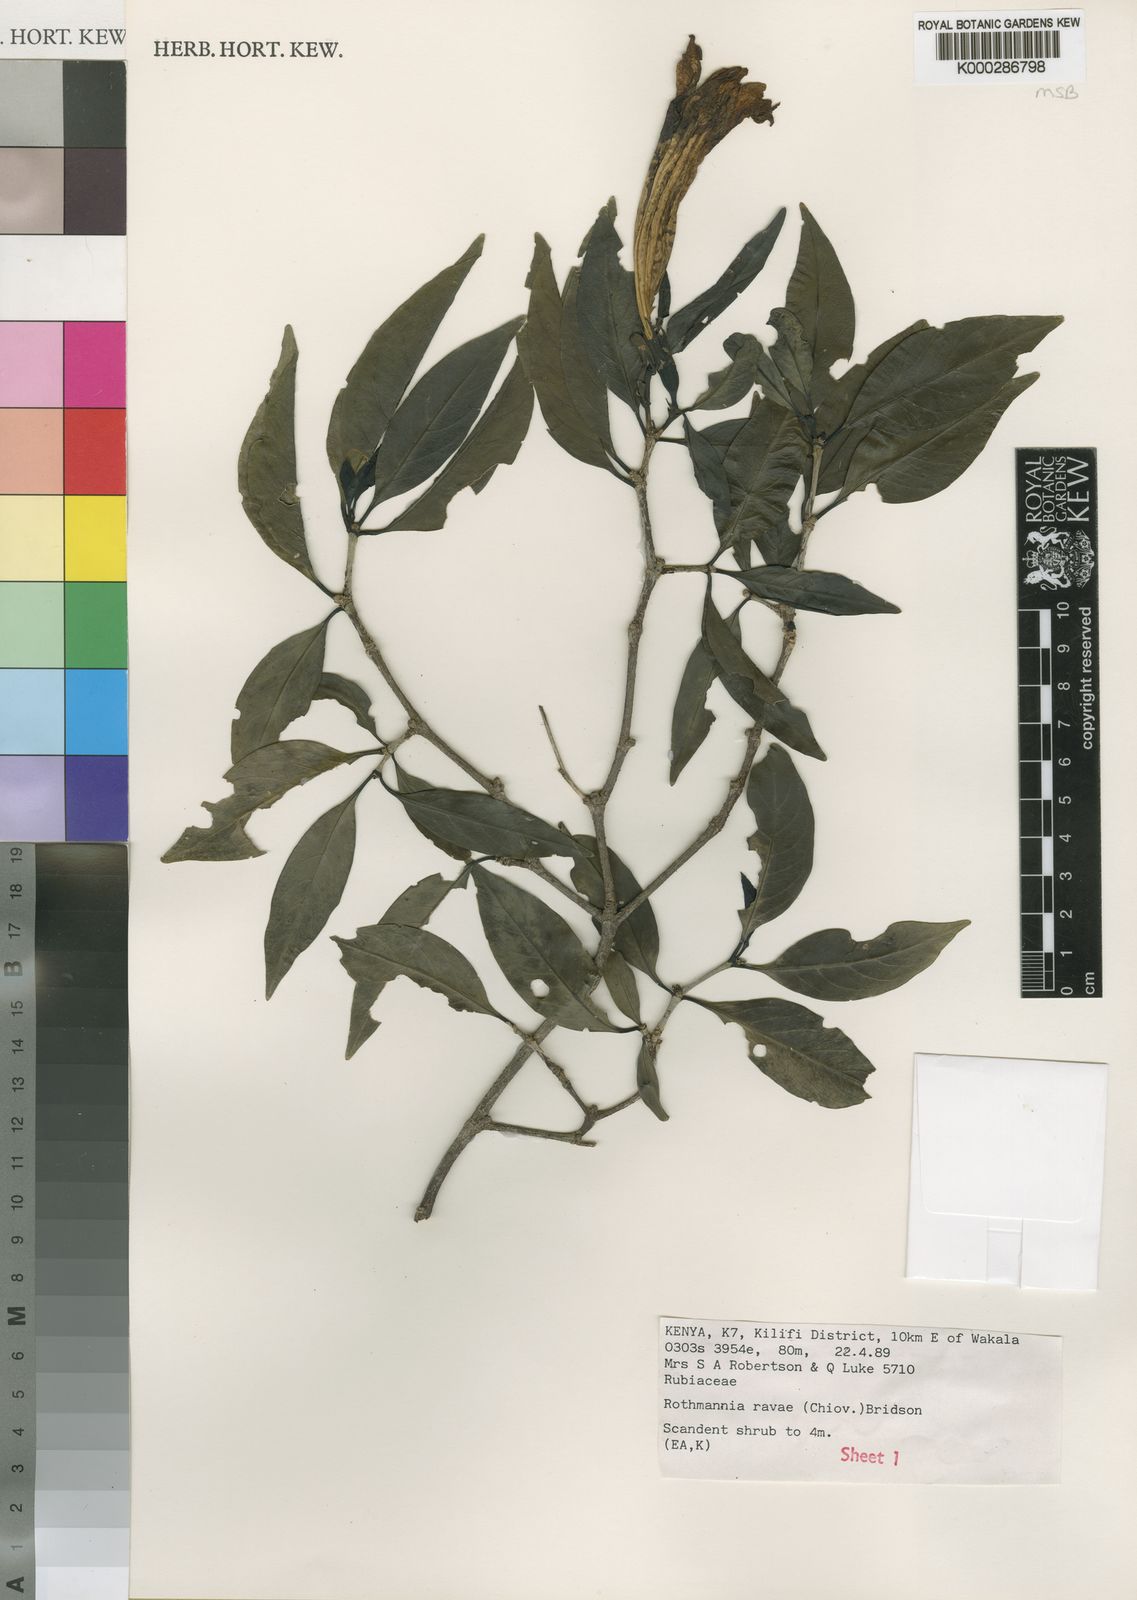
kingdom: Plantae
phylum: Tracheophyta
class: Magnoliopsida
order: Gentianales
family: Rubiaceae
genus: Rothmannia
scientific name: Rothmannia ravae
